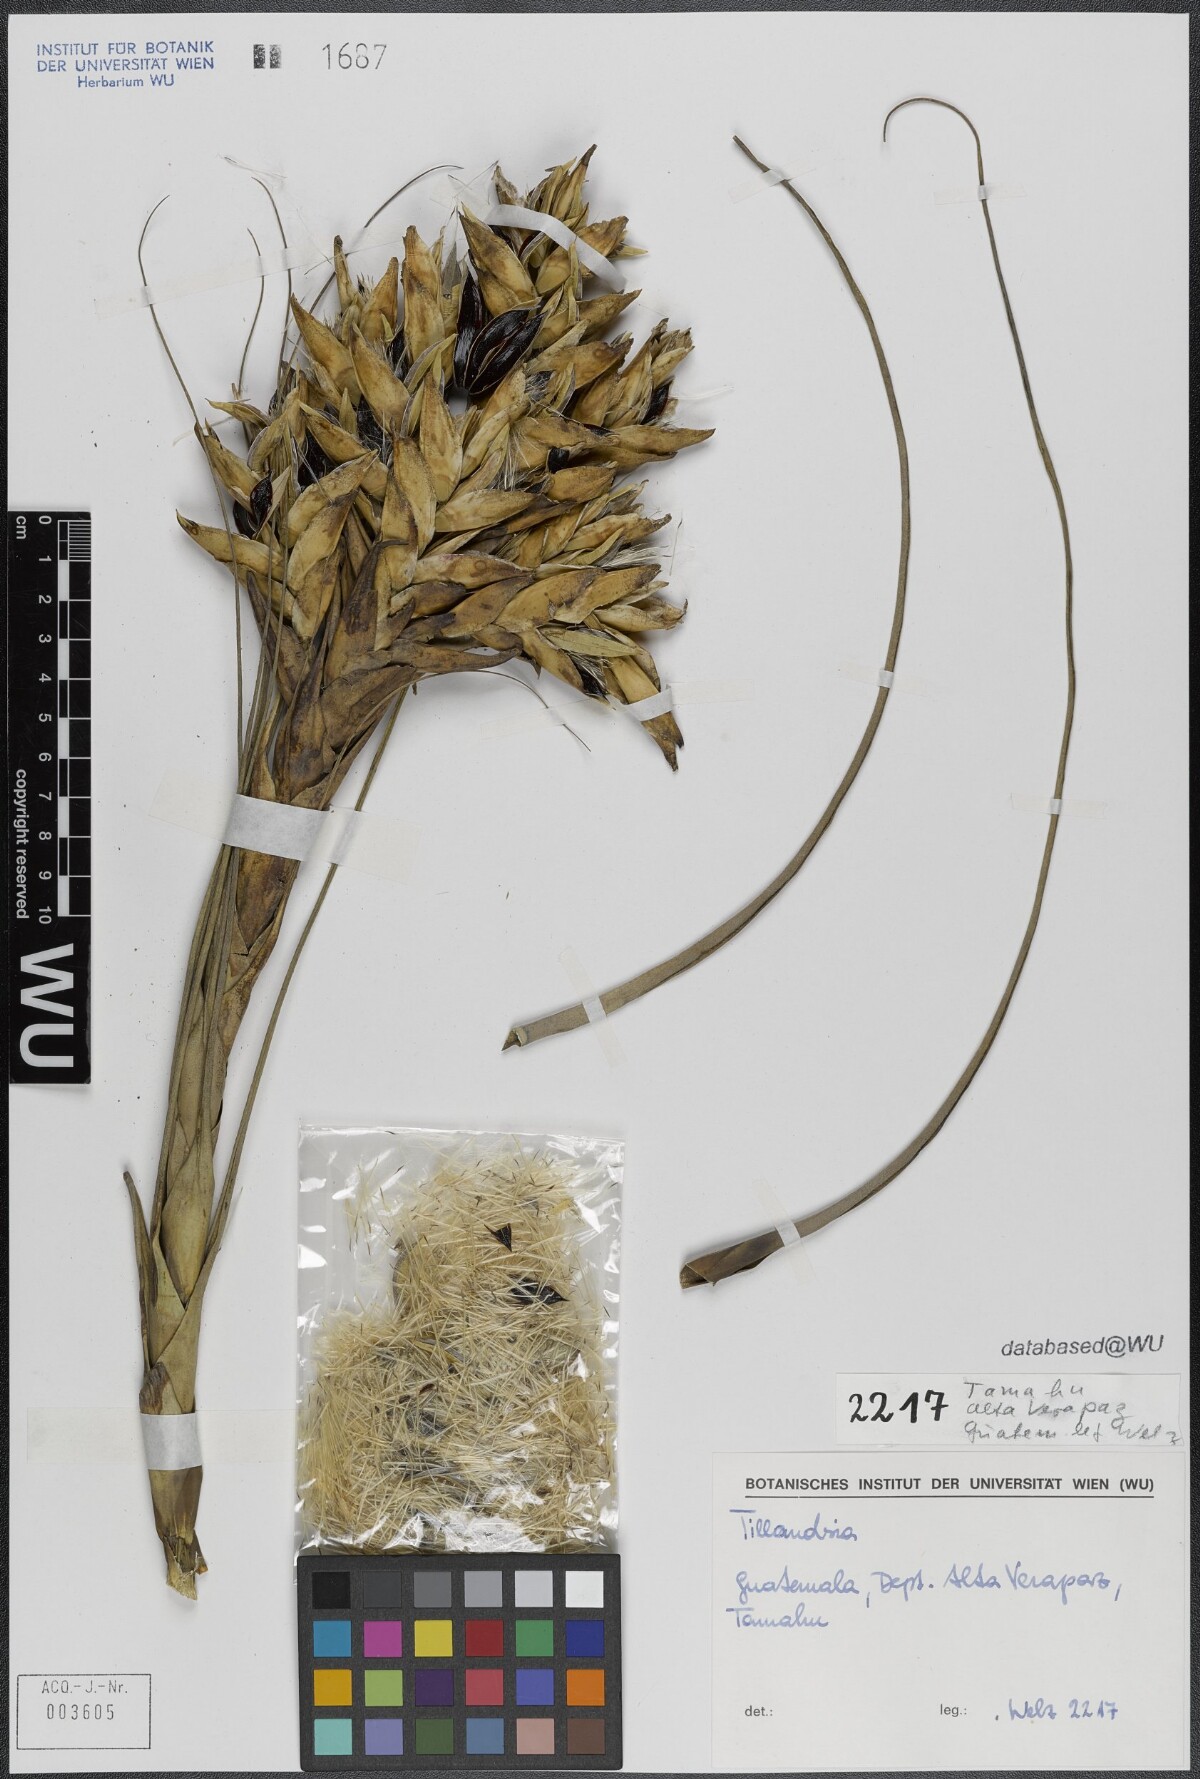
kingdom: Plantae
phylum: Tracheophyta
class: Liliopsida
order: Poales
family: Bromeliaceae
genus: Tillandsia
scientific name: Tillandsia fasciculata
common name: Giant airplant
